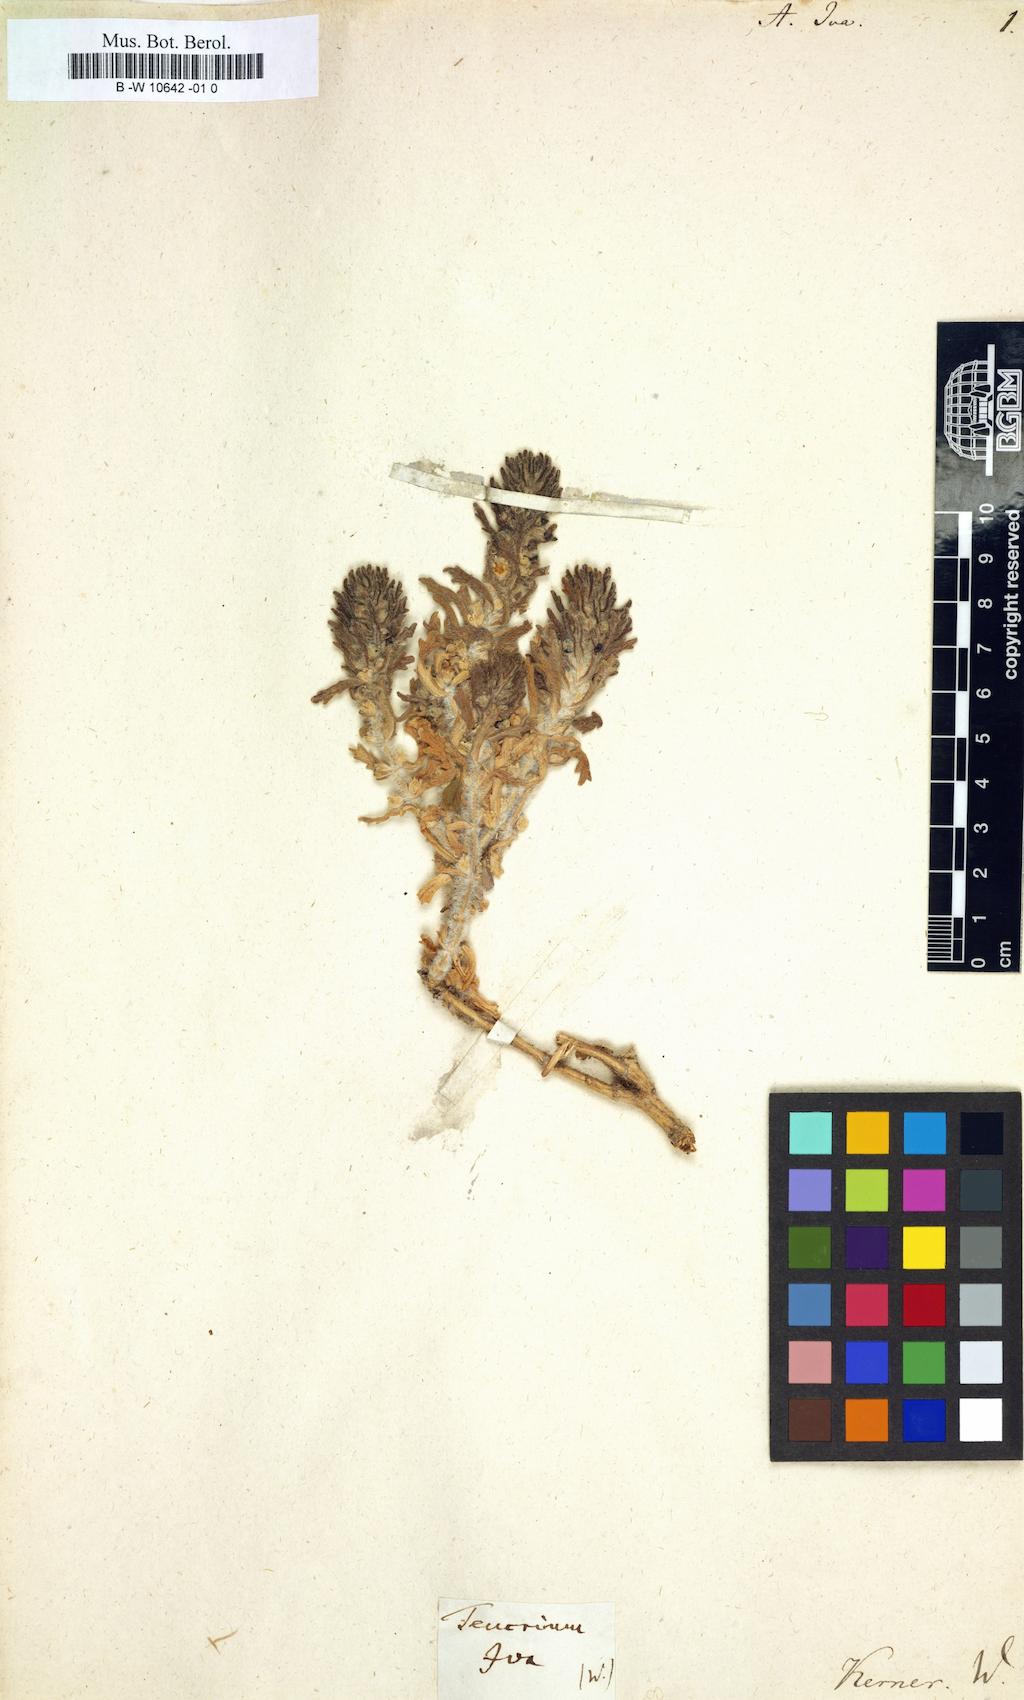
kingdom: Plantae
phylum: Tracheophyta
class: Magnoliopsida
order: Lamiales
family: Lamiaceae
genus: Ajuga
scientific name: Ajuga iva
